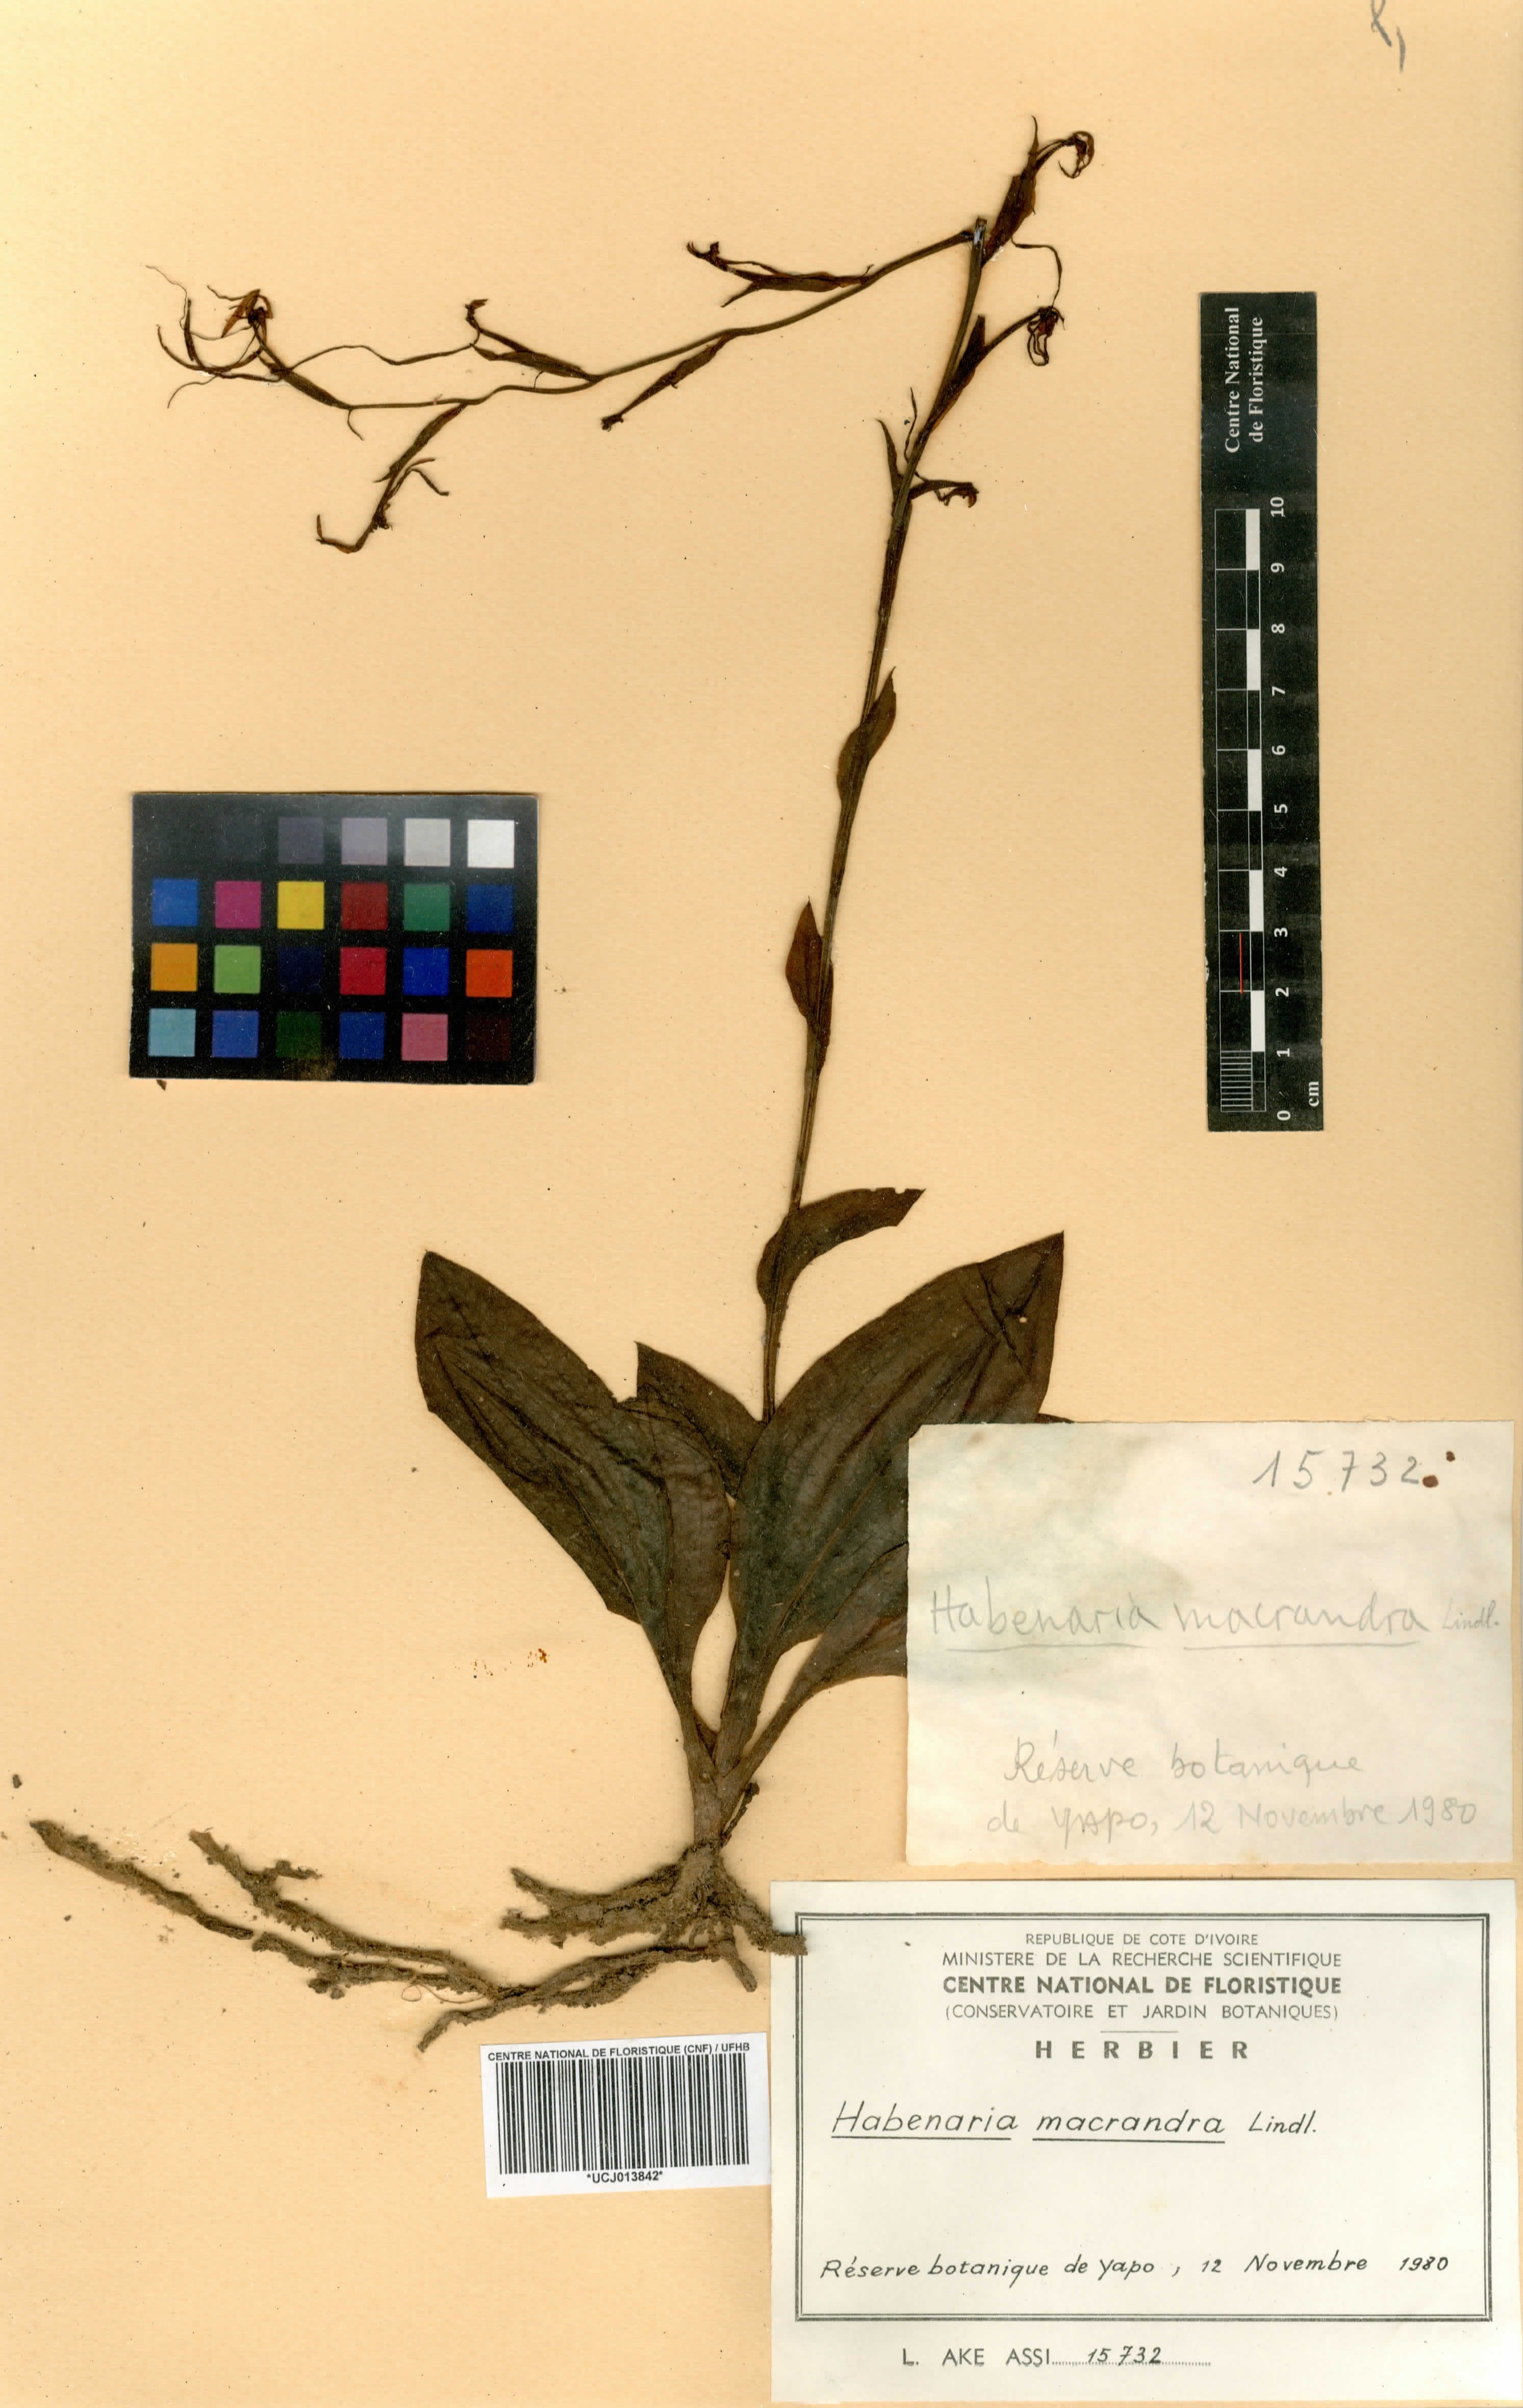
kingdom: Plantae
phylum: Tracheophyta
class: Liliopsida
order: Asparagales
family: Orchidaceae
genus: Habenaria
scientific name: Habenaria macrandra
